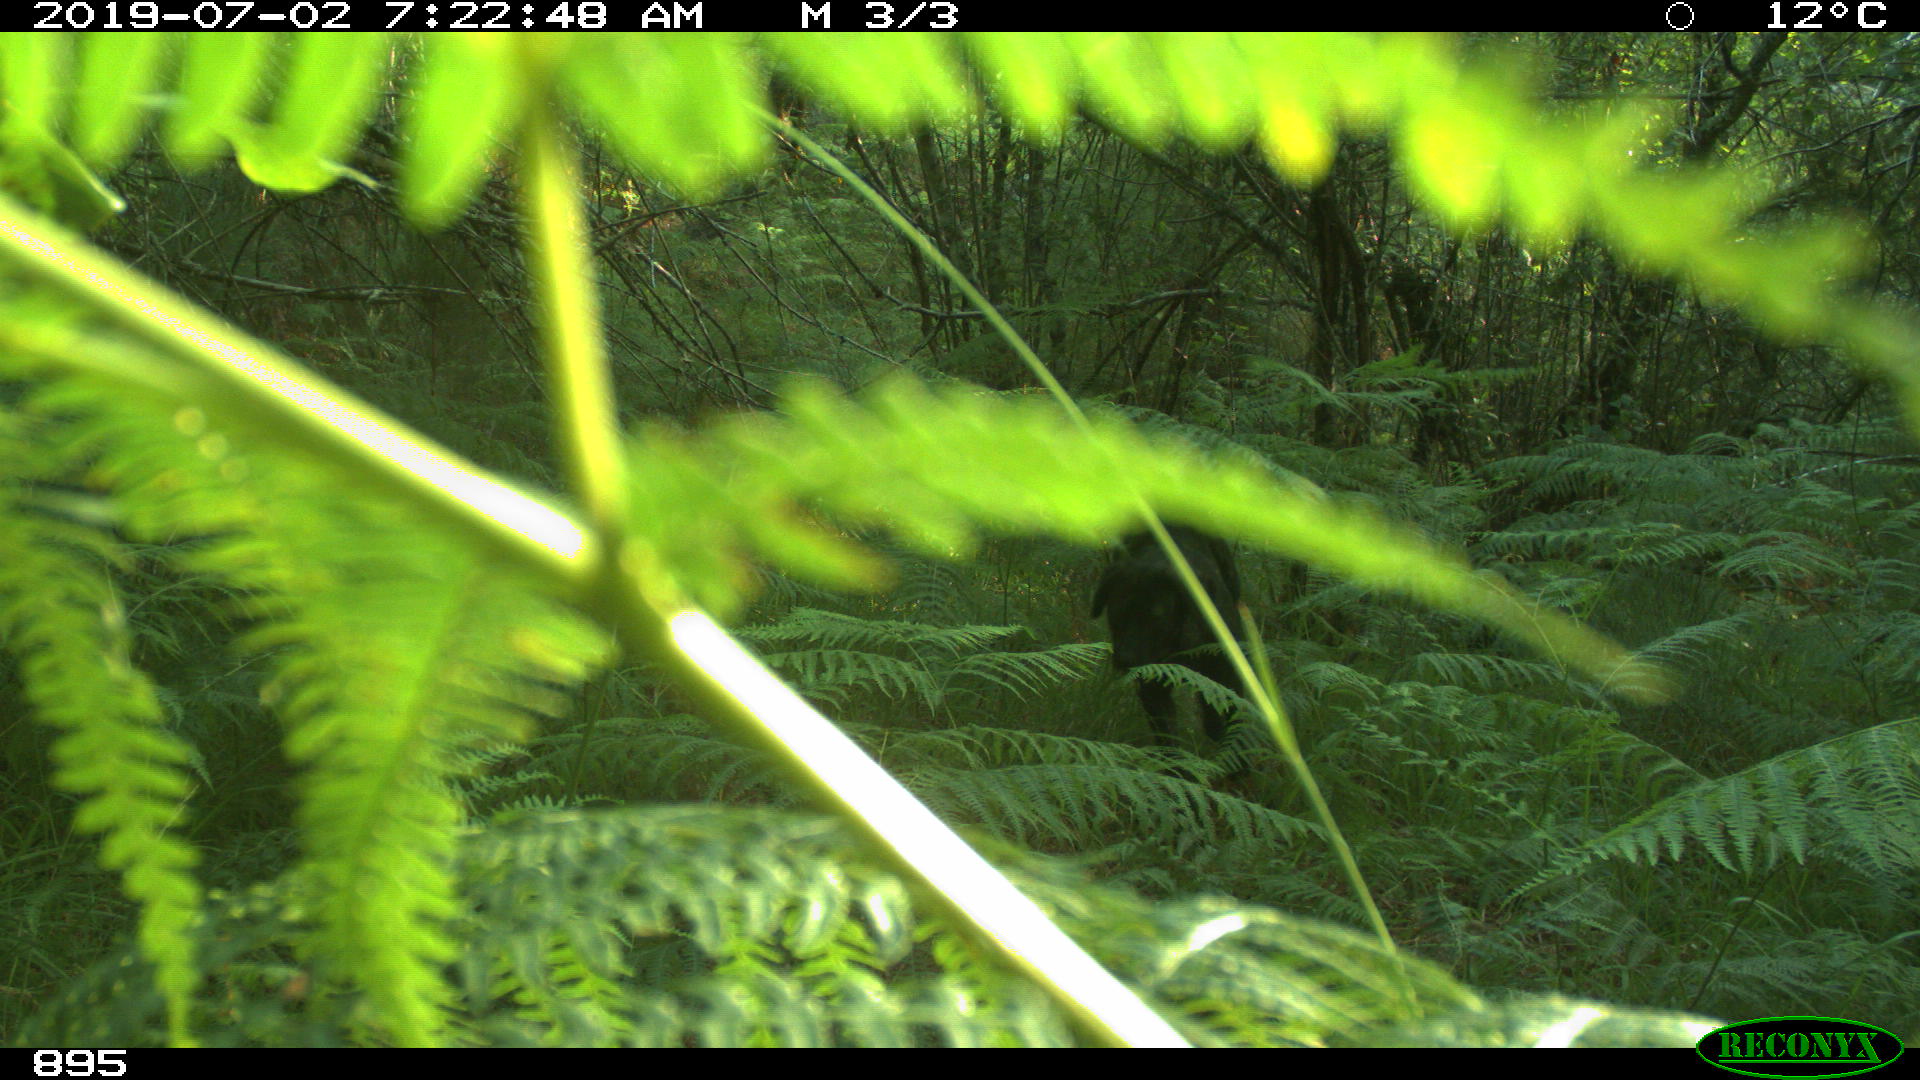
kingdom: Animalia
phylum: Chordata
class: Mammalia
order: Carnivora
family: Canidae
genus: Canis
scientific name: Canis lupus
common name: Gray wolf
